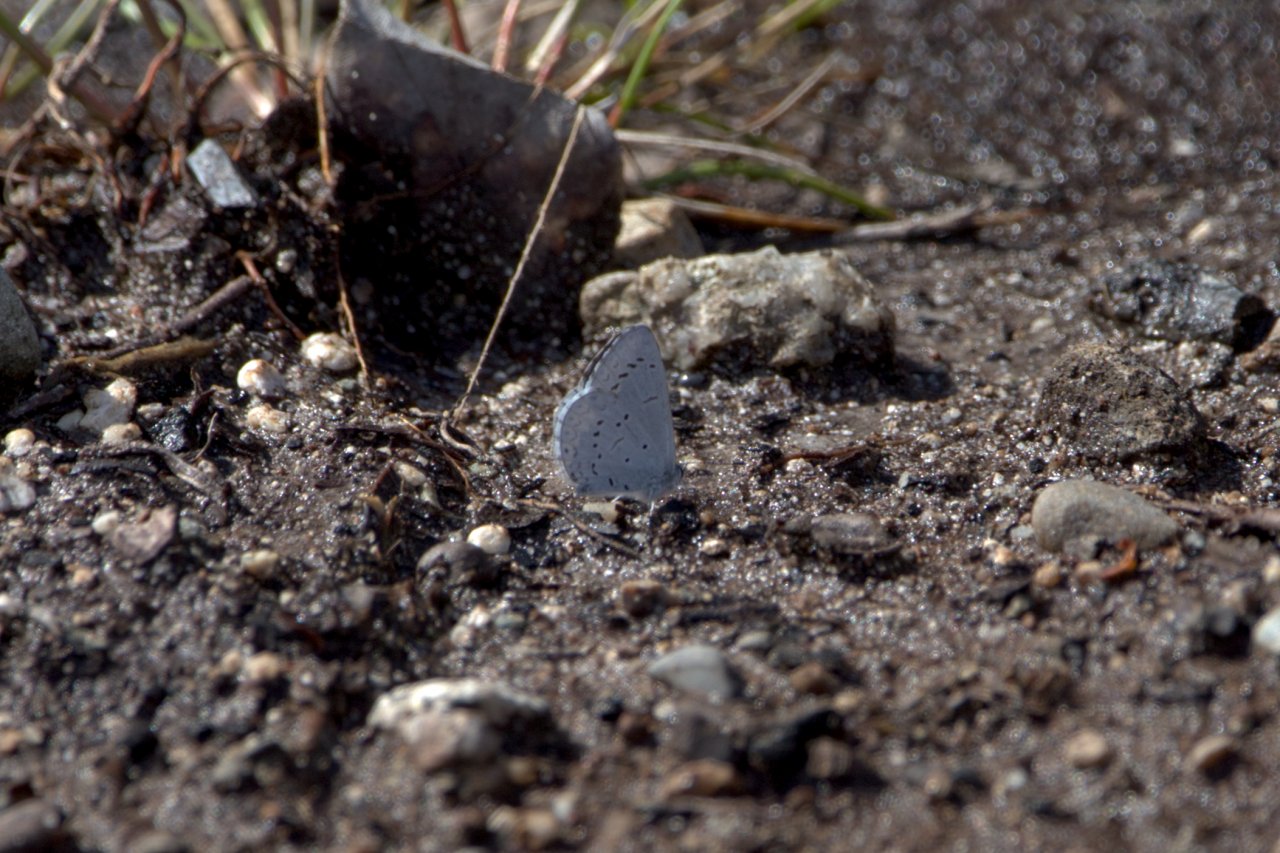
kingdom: Animalia
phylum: Arthropoda
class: Insecta
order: Lepidoptera
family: Lycaenidae
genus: Celastrina
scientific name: Celastrina ladon
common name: Echo Azure
